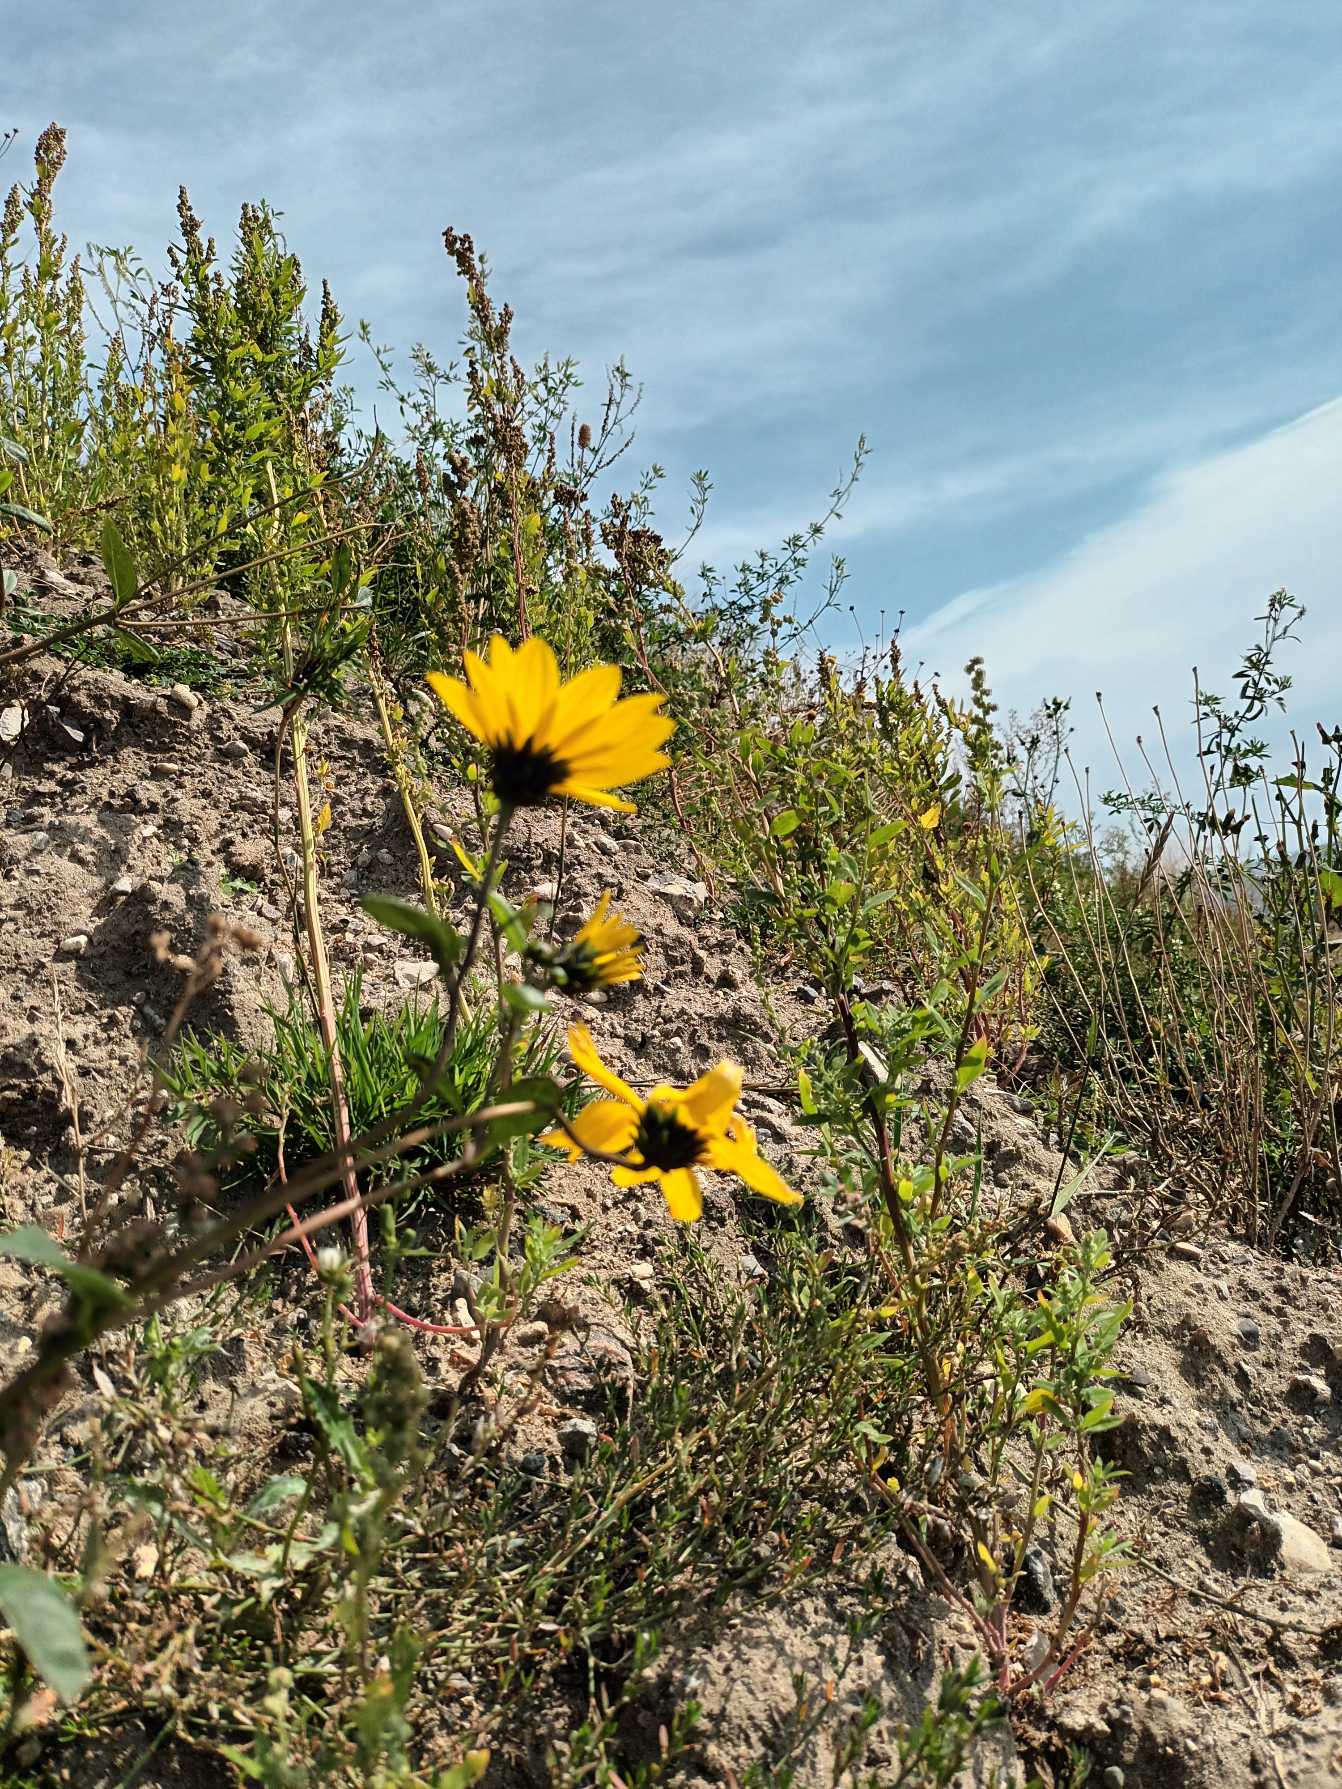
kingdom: Plantae
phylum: Tracheophyta
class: Magnoliopsida
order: Asterales
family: Asteraceae
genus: Helianthus
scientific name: Helianthus tuberosus
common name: Jordskok
